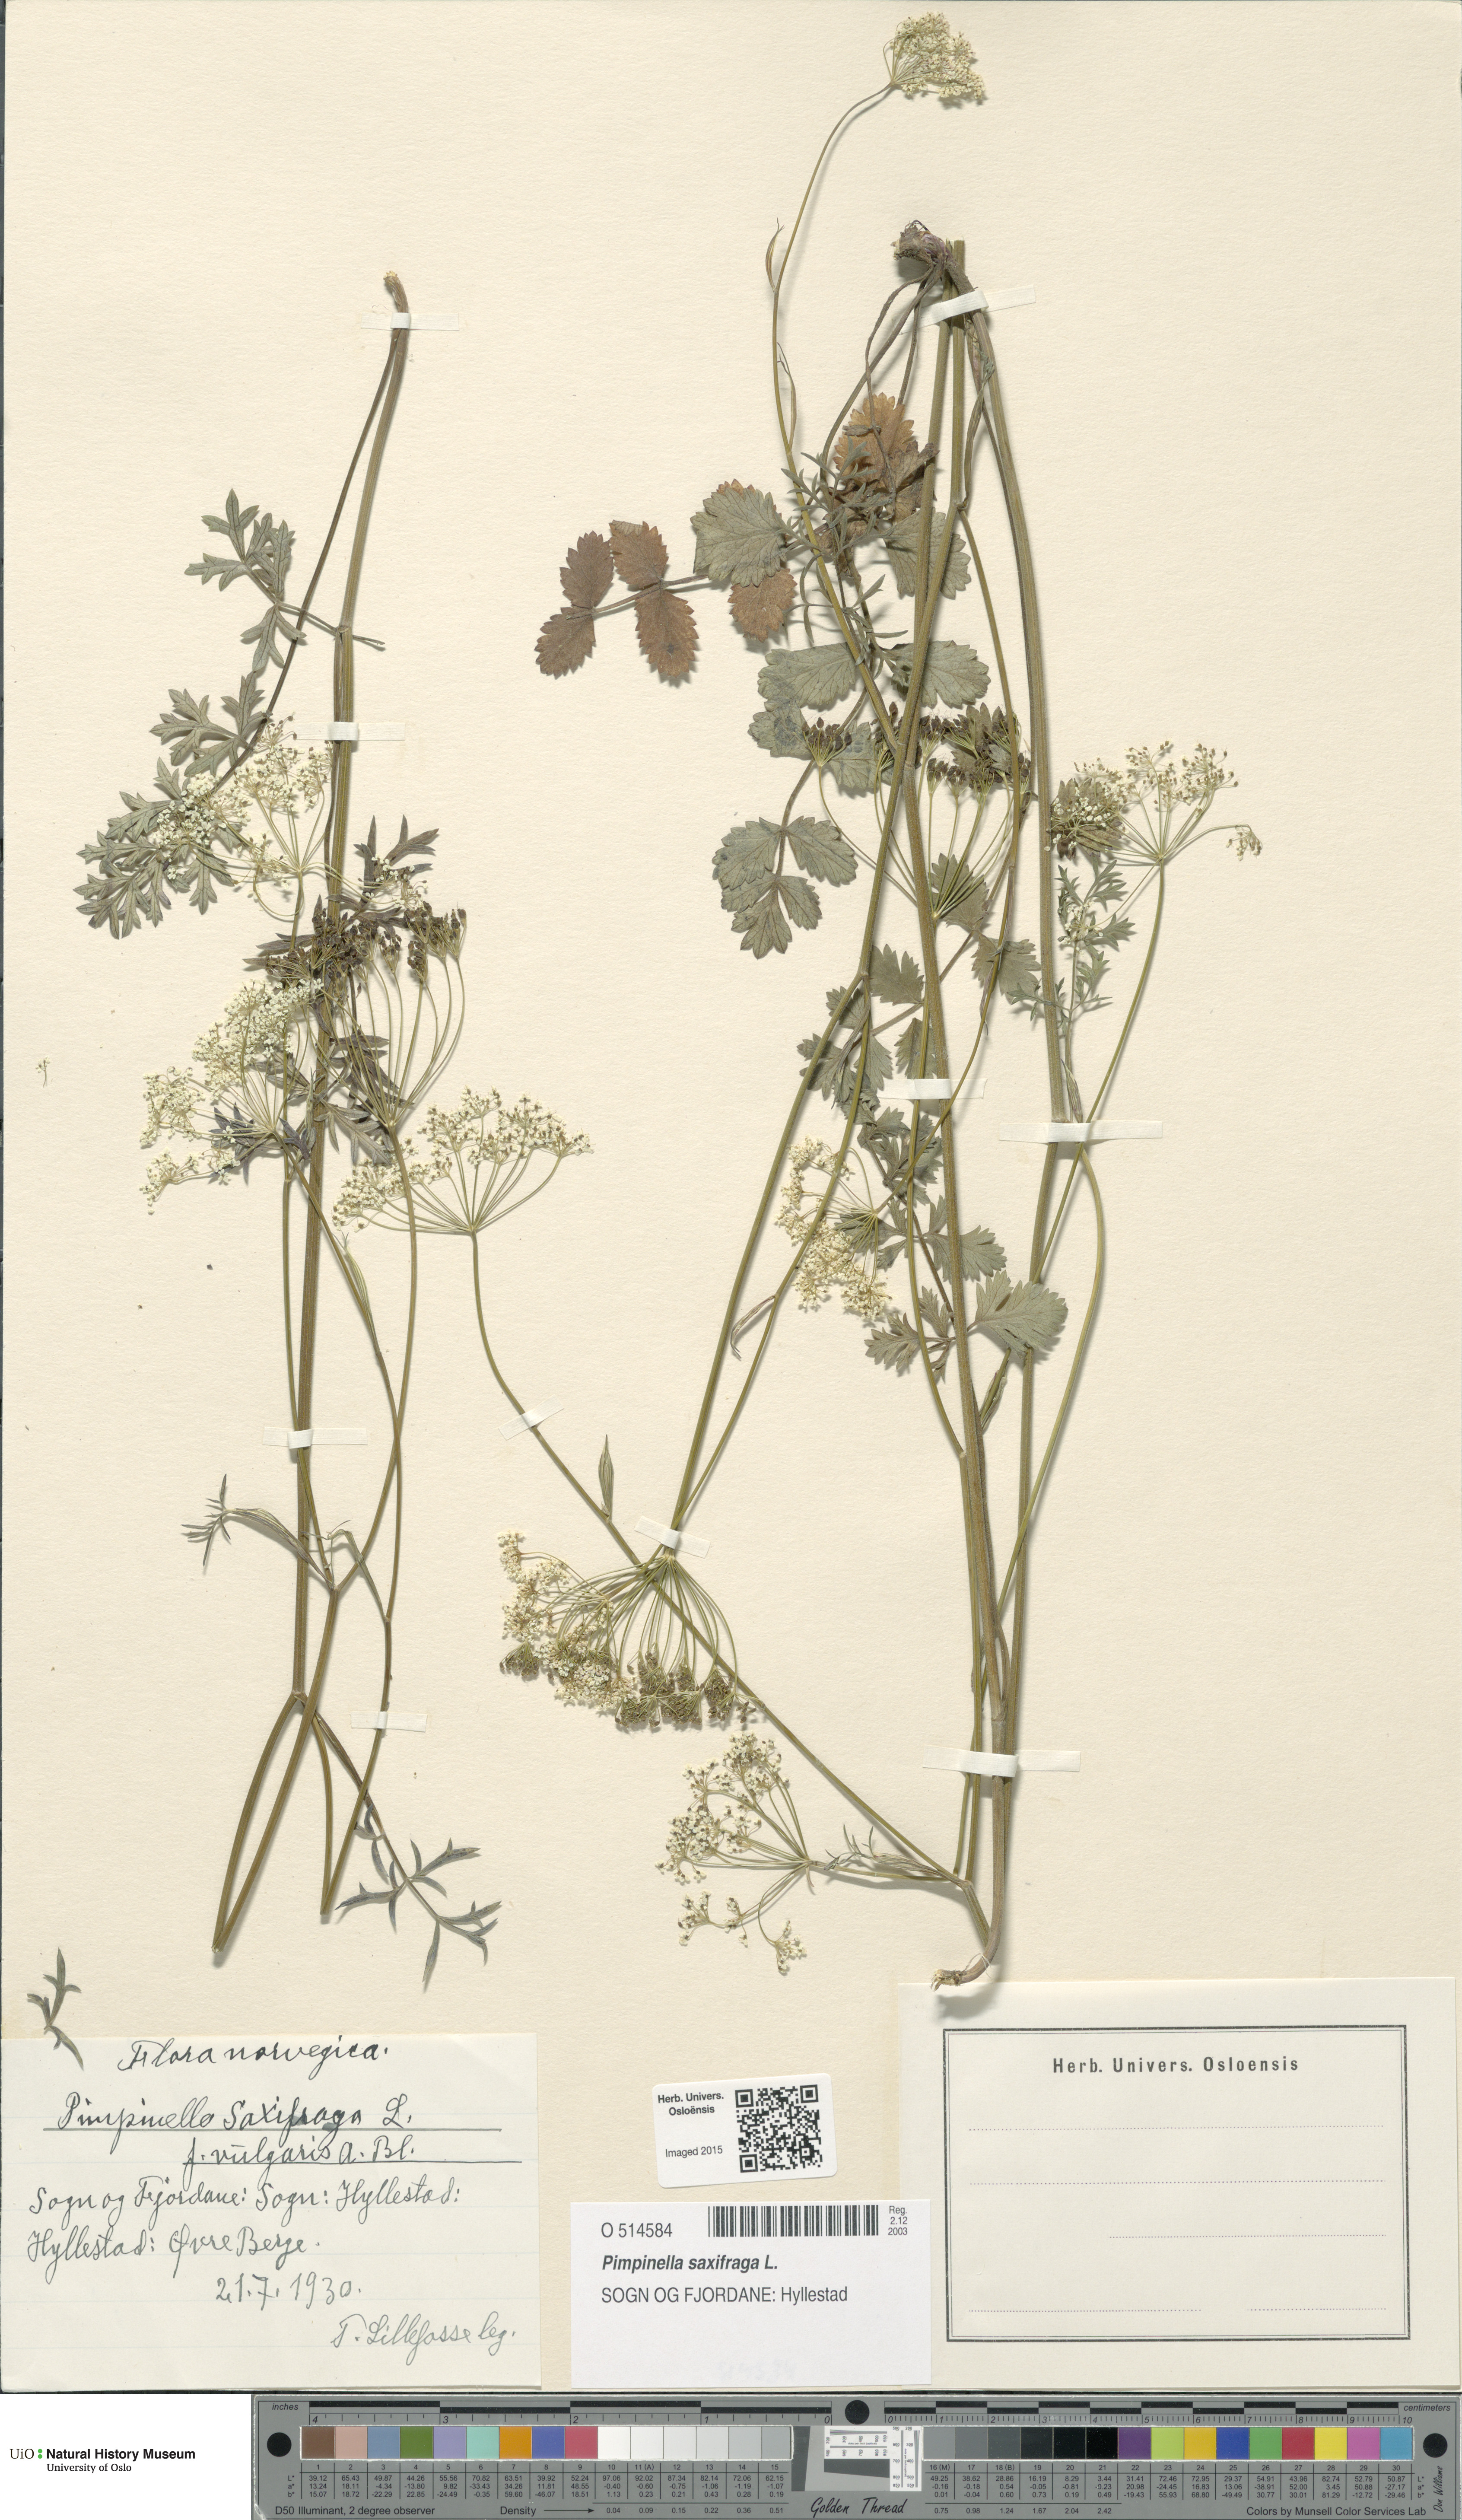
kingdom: Plantae
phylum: Tracheophyta
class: Magnoliopsida
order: Apiales
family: Apiaceae
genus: Pimpinella
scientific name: Pimpinella saxifraga
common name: Burnet-saxifrage
